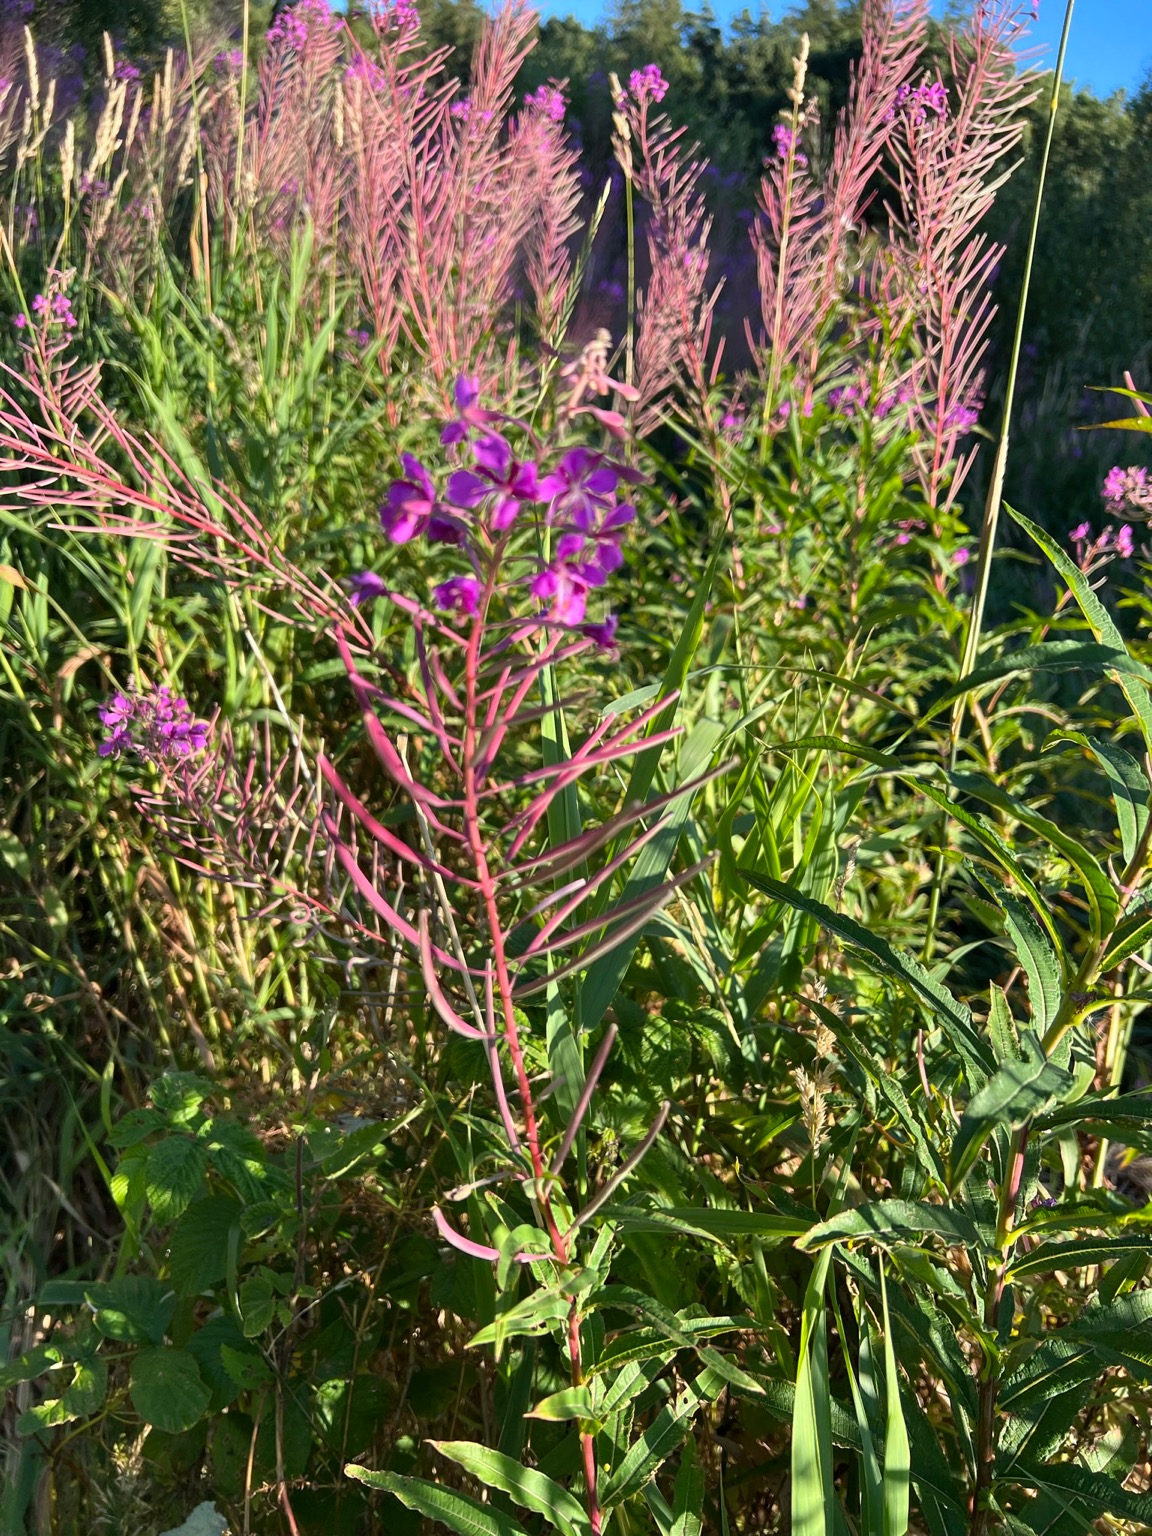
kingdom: Plantae
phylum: Tracheophyta
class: Magnoliopsida
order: Myrtales
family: Onagraceae
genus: Chamaenerion
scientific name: Chamaenerion angustifolium
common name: Gederams
